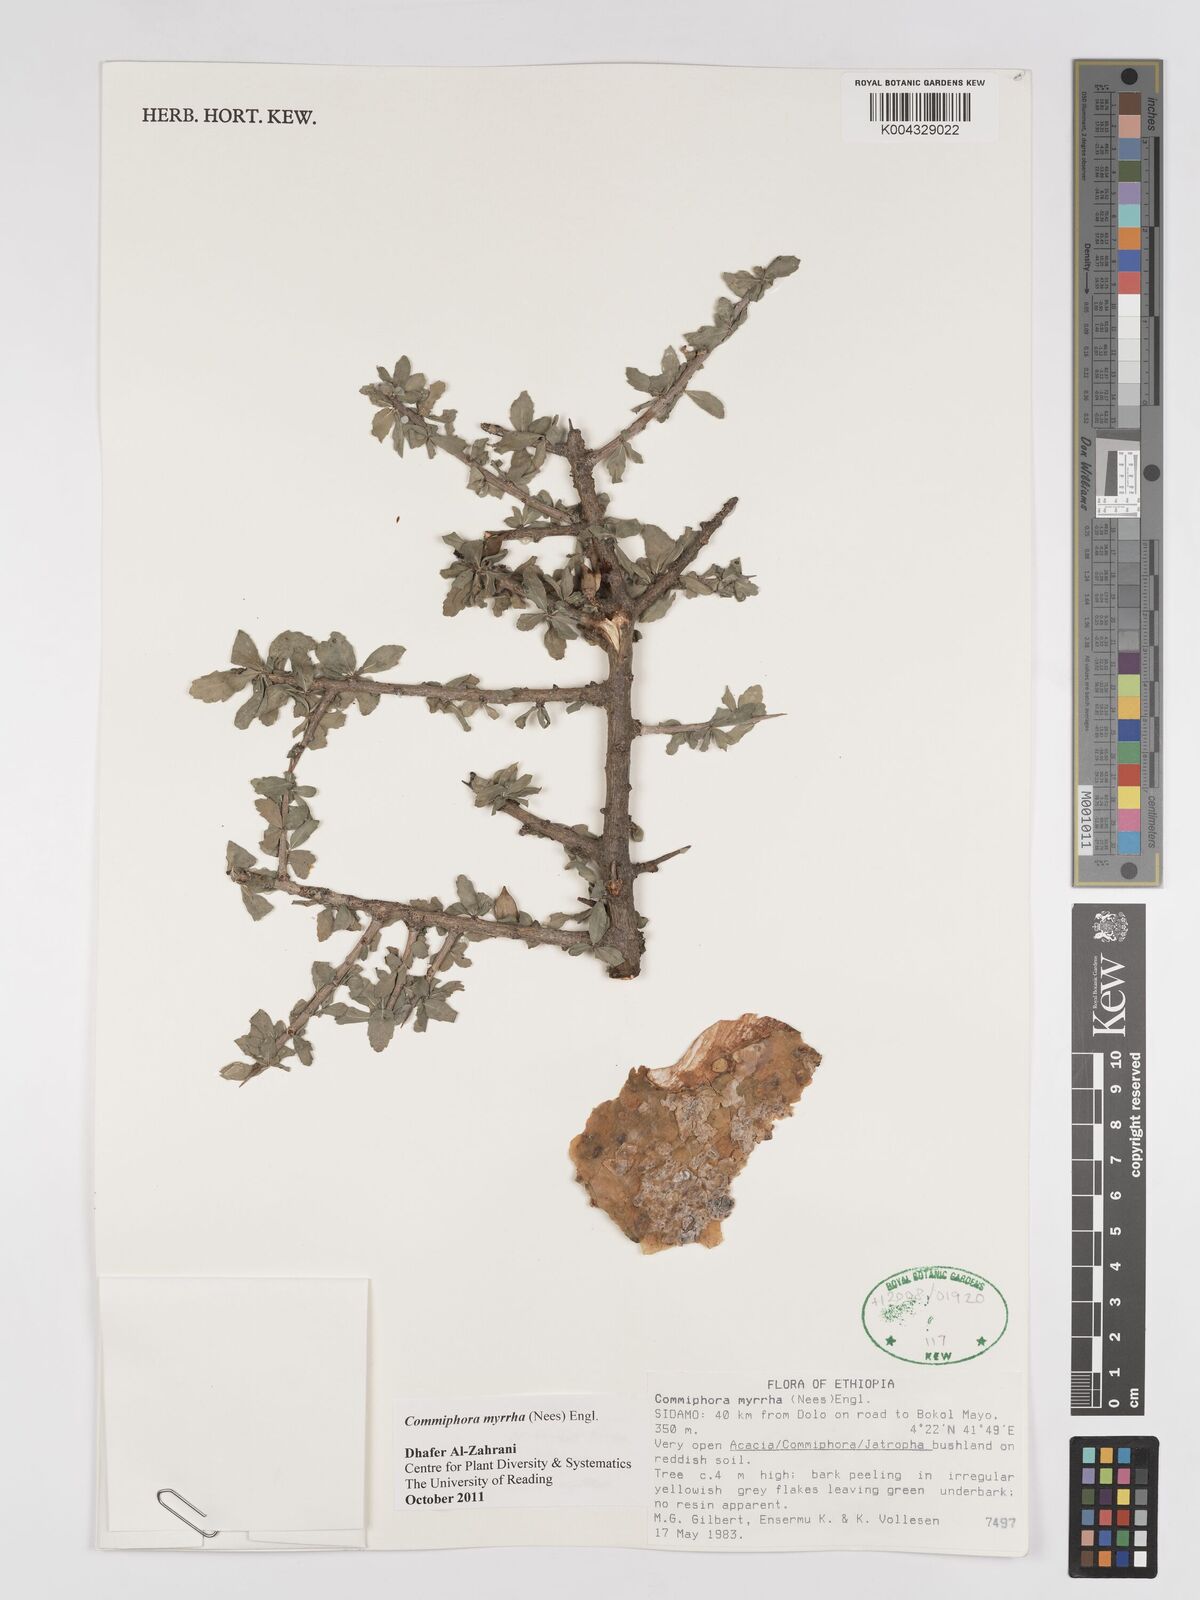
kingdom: Plantae
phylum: Tracheophyta
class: Magnoliopsida
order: Sapindales
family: Burseraceae
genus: Commiphora
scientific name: Commiphora myrrha
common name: African myrrh
